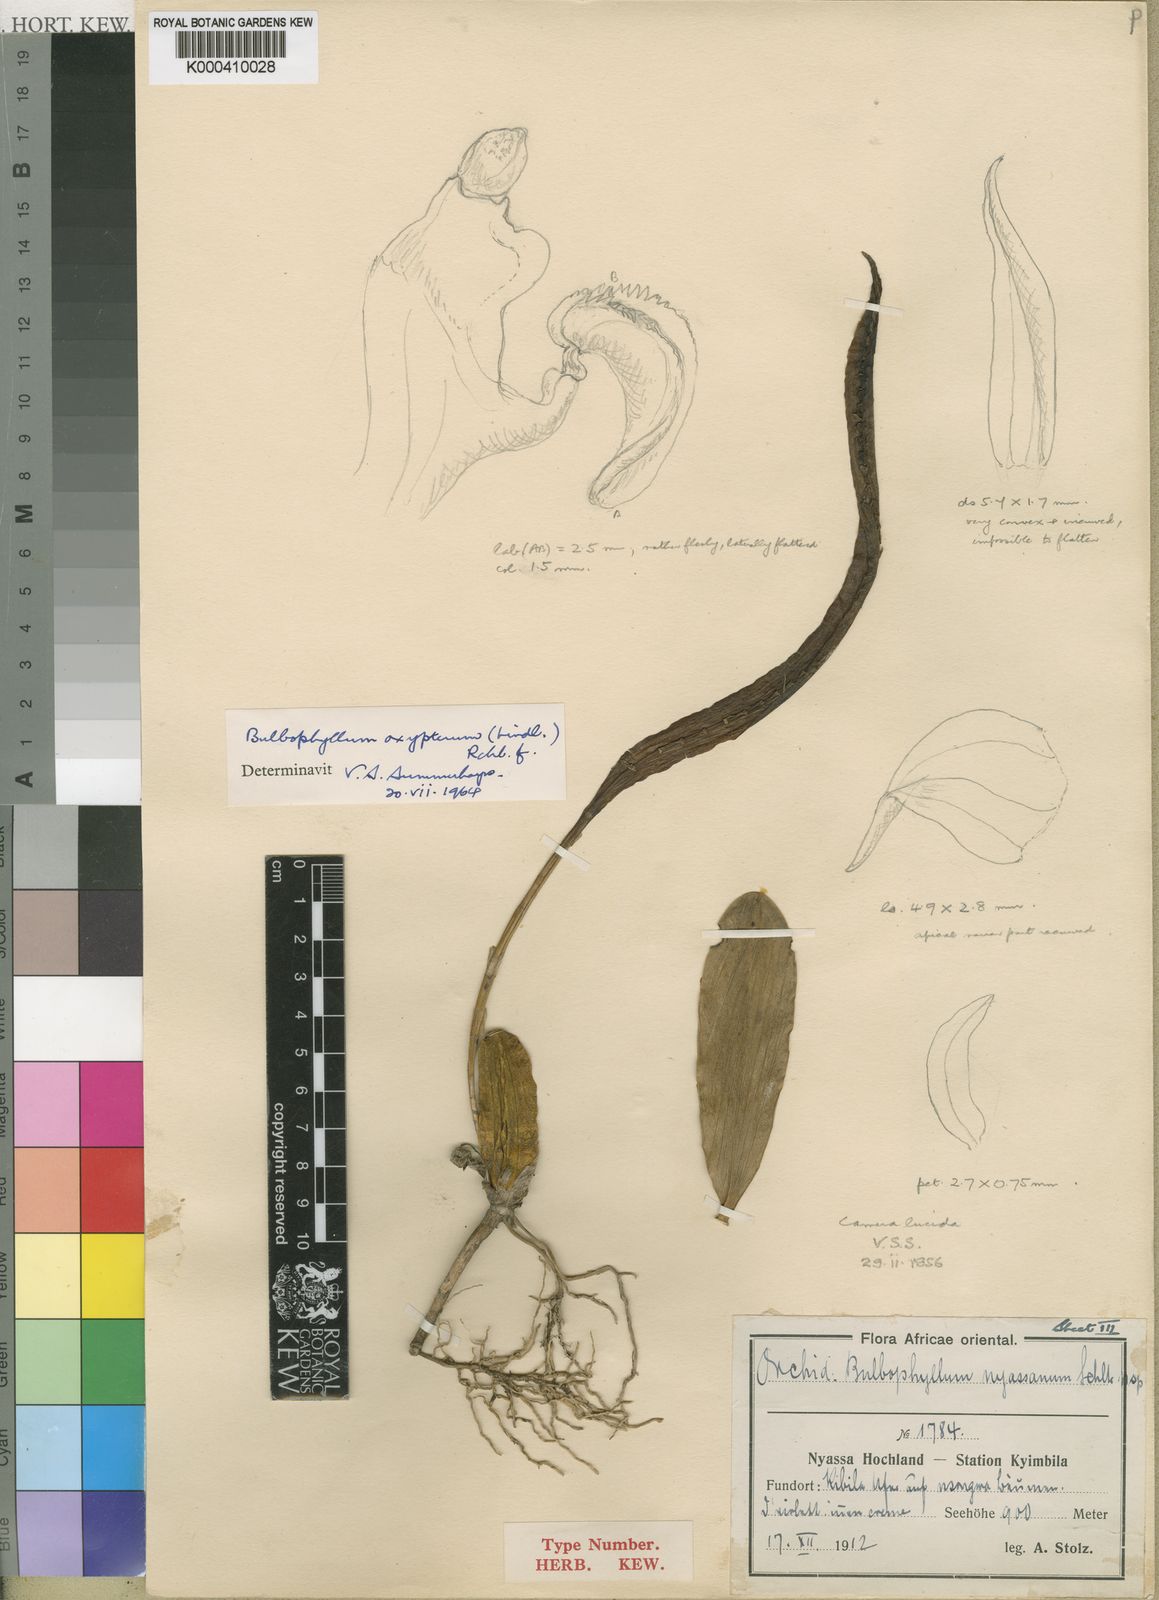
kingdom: Plantae
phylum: Tracheophyta
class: Liliopsida
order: Asparagales
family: Orchidaceae
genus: Bulbophyllum
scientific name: Bulbophyllum maximum
